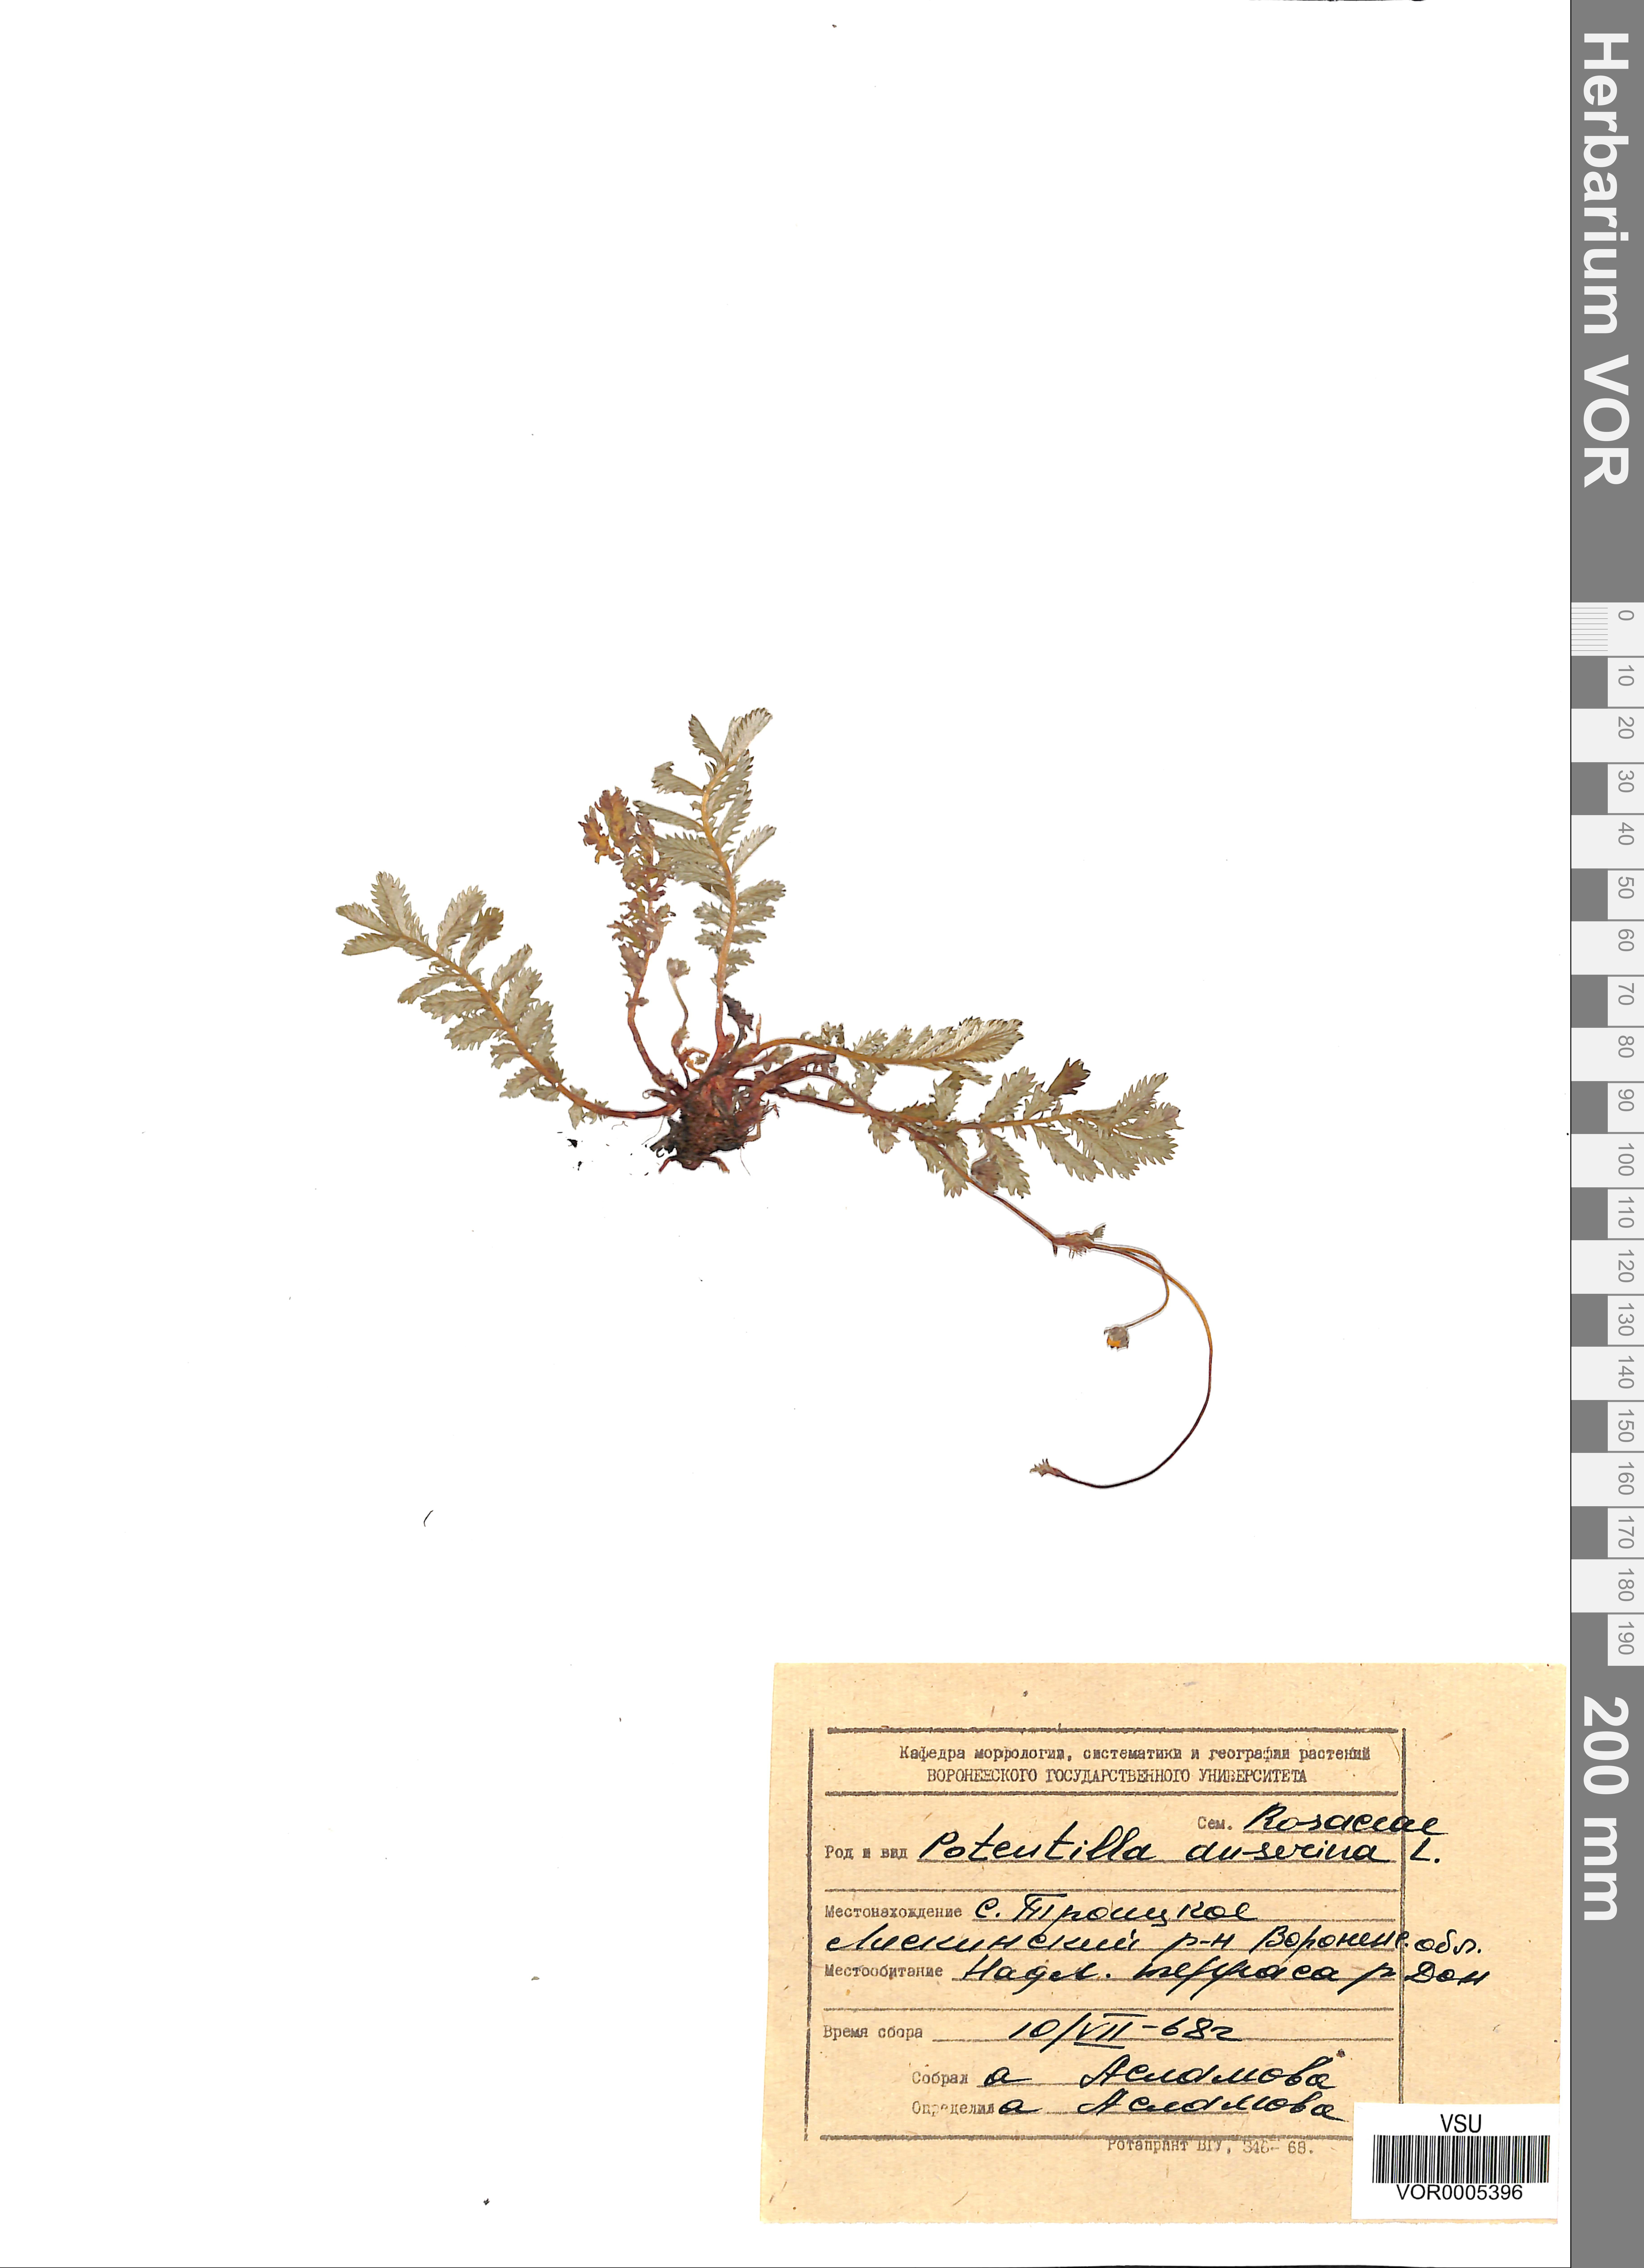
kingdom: Plantae
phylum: Tracheophyta
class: Magnoliopsida
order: Rosales
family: Rosaceae
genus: Argentina
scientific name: Argentina anserina
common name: Common silverweed
